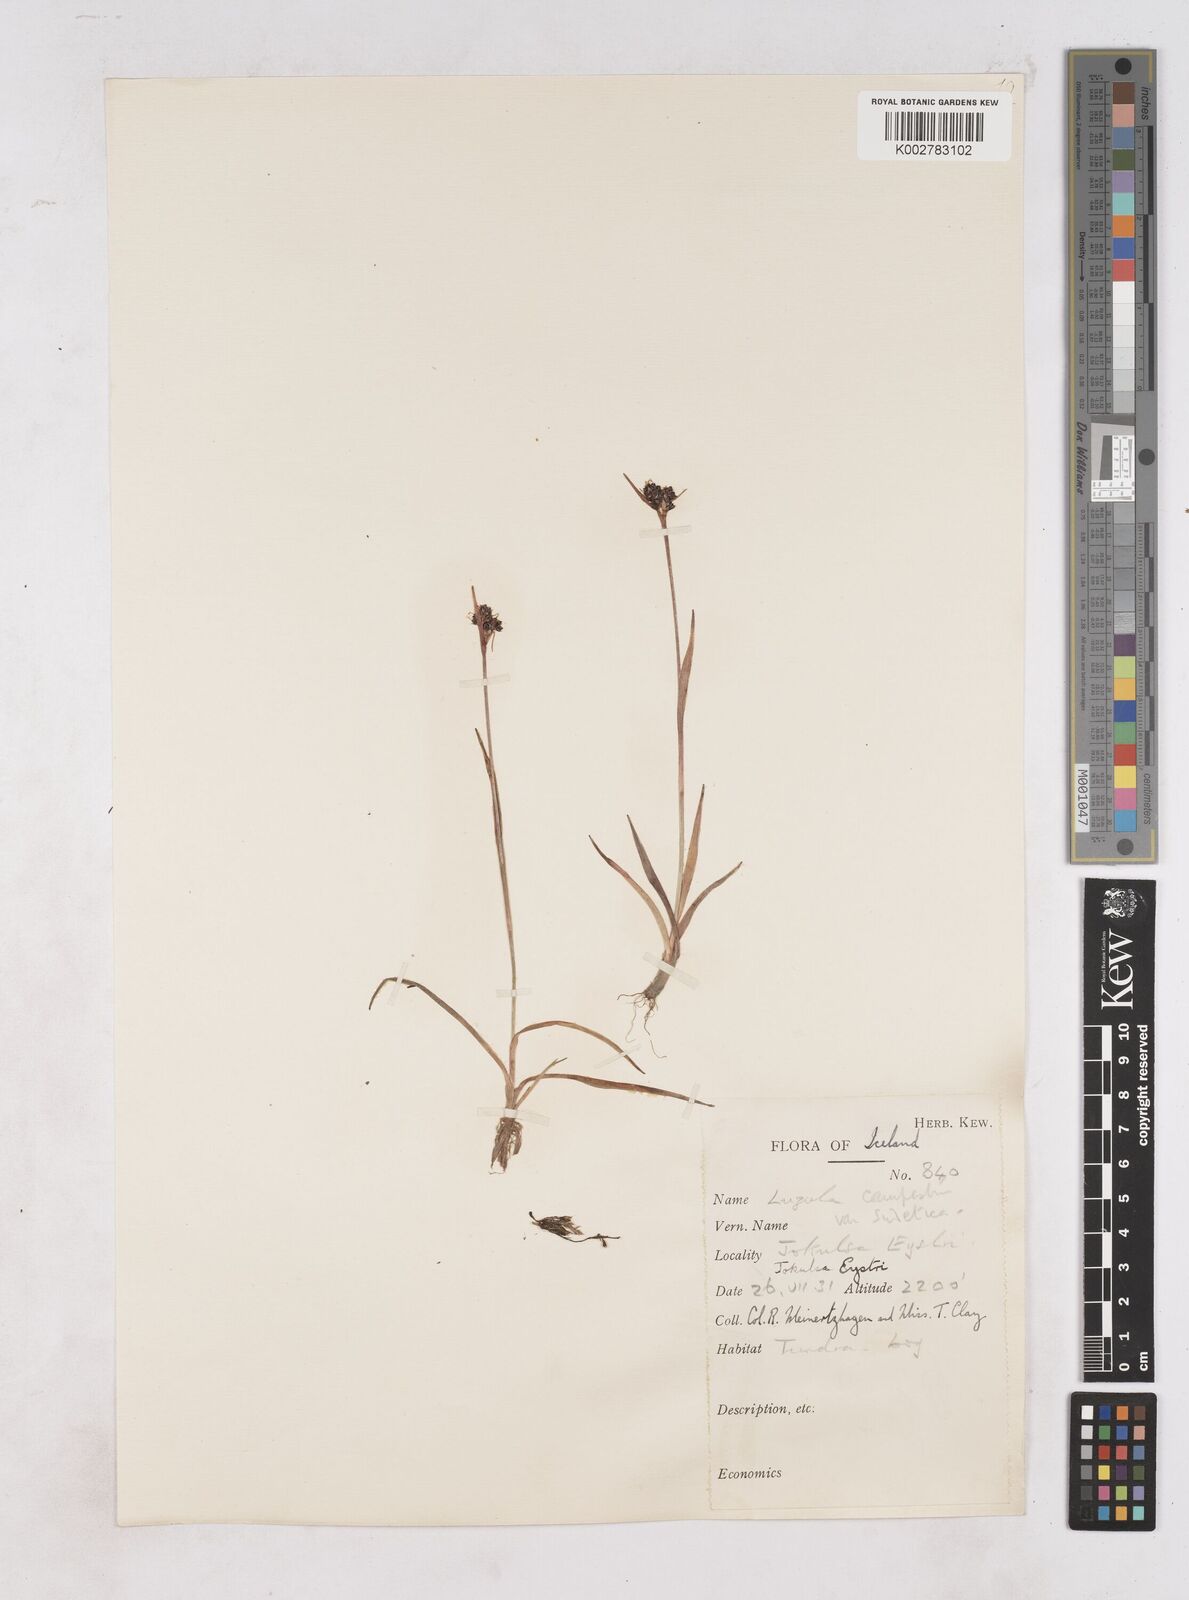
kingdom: Plantae
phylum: Tracheophyta
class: Liliopsida
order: Poales
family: Juncaceae
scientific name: Juncaceae
